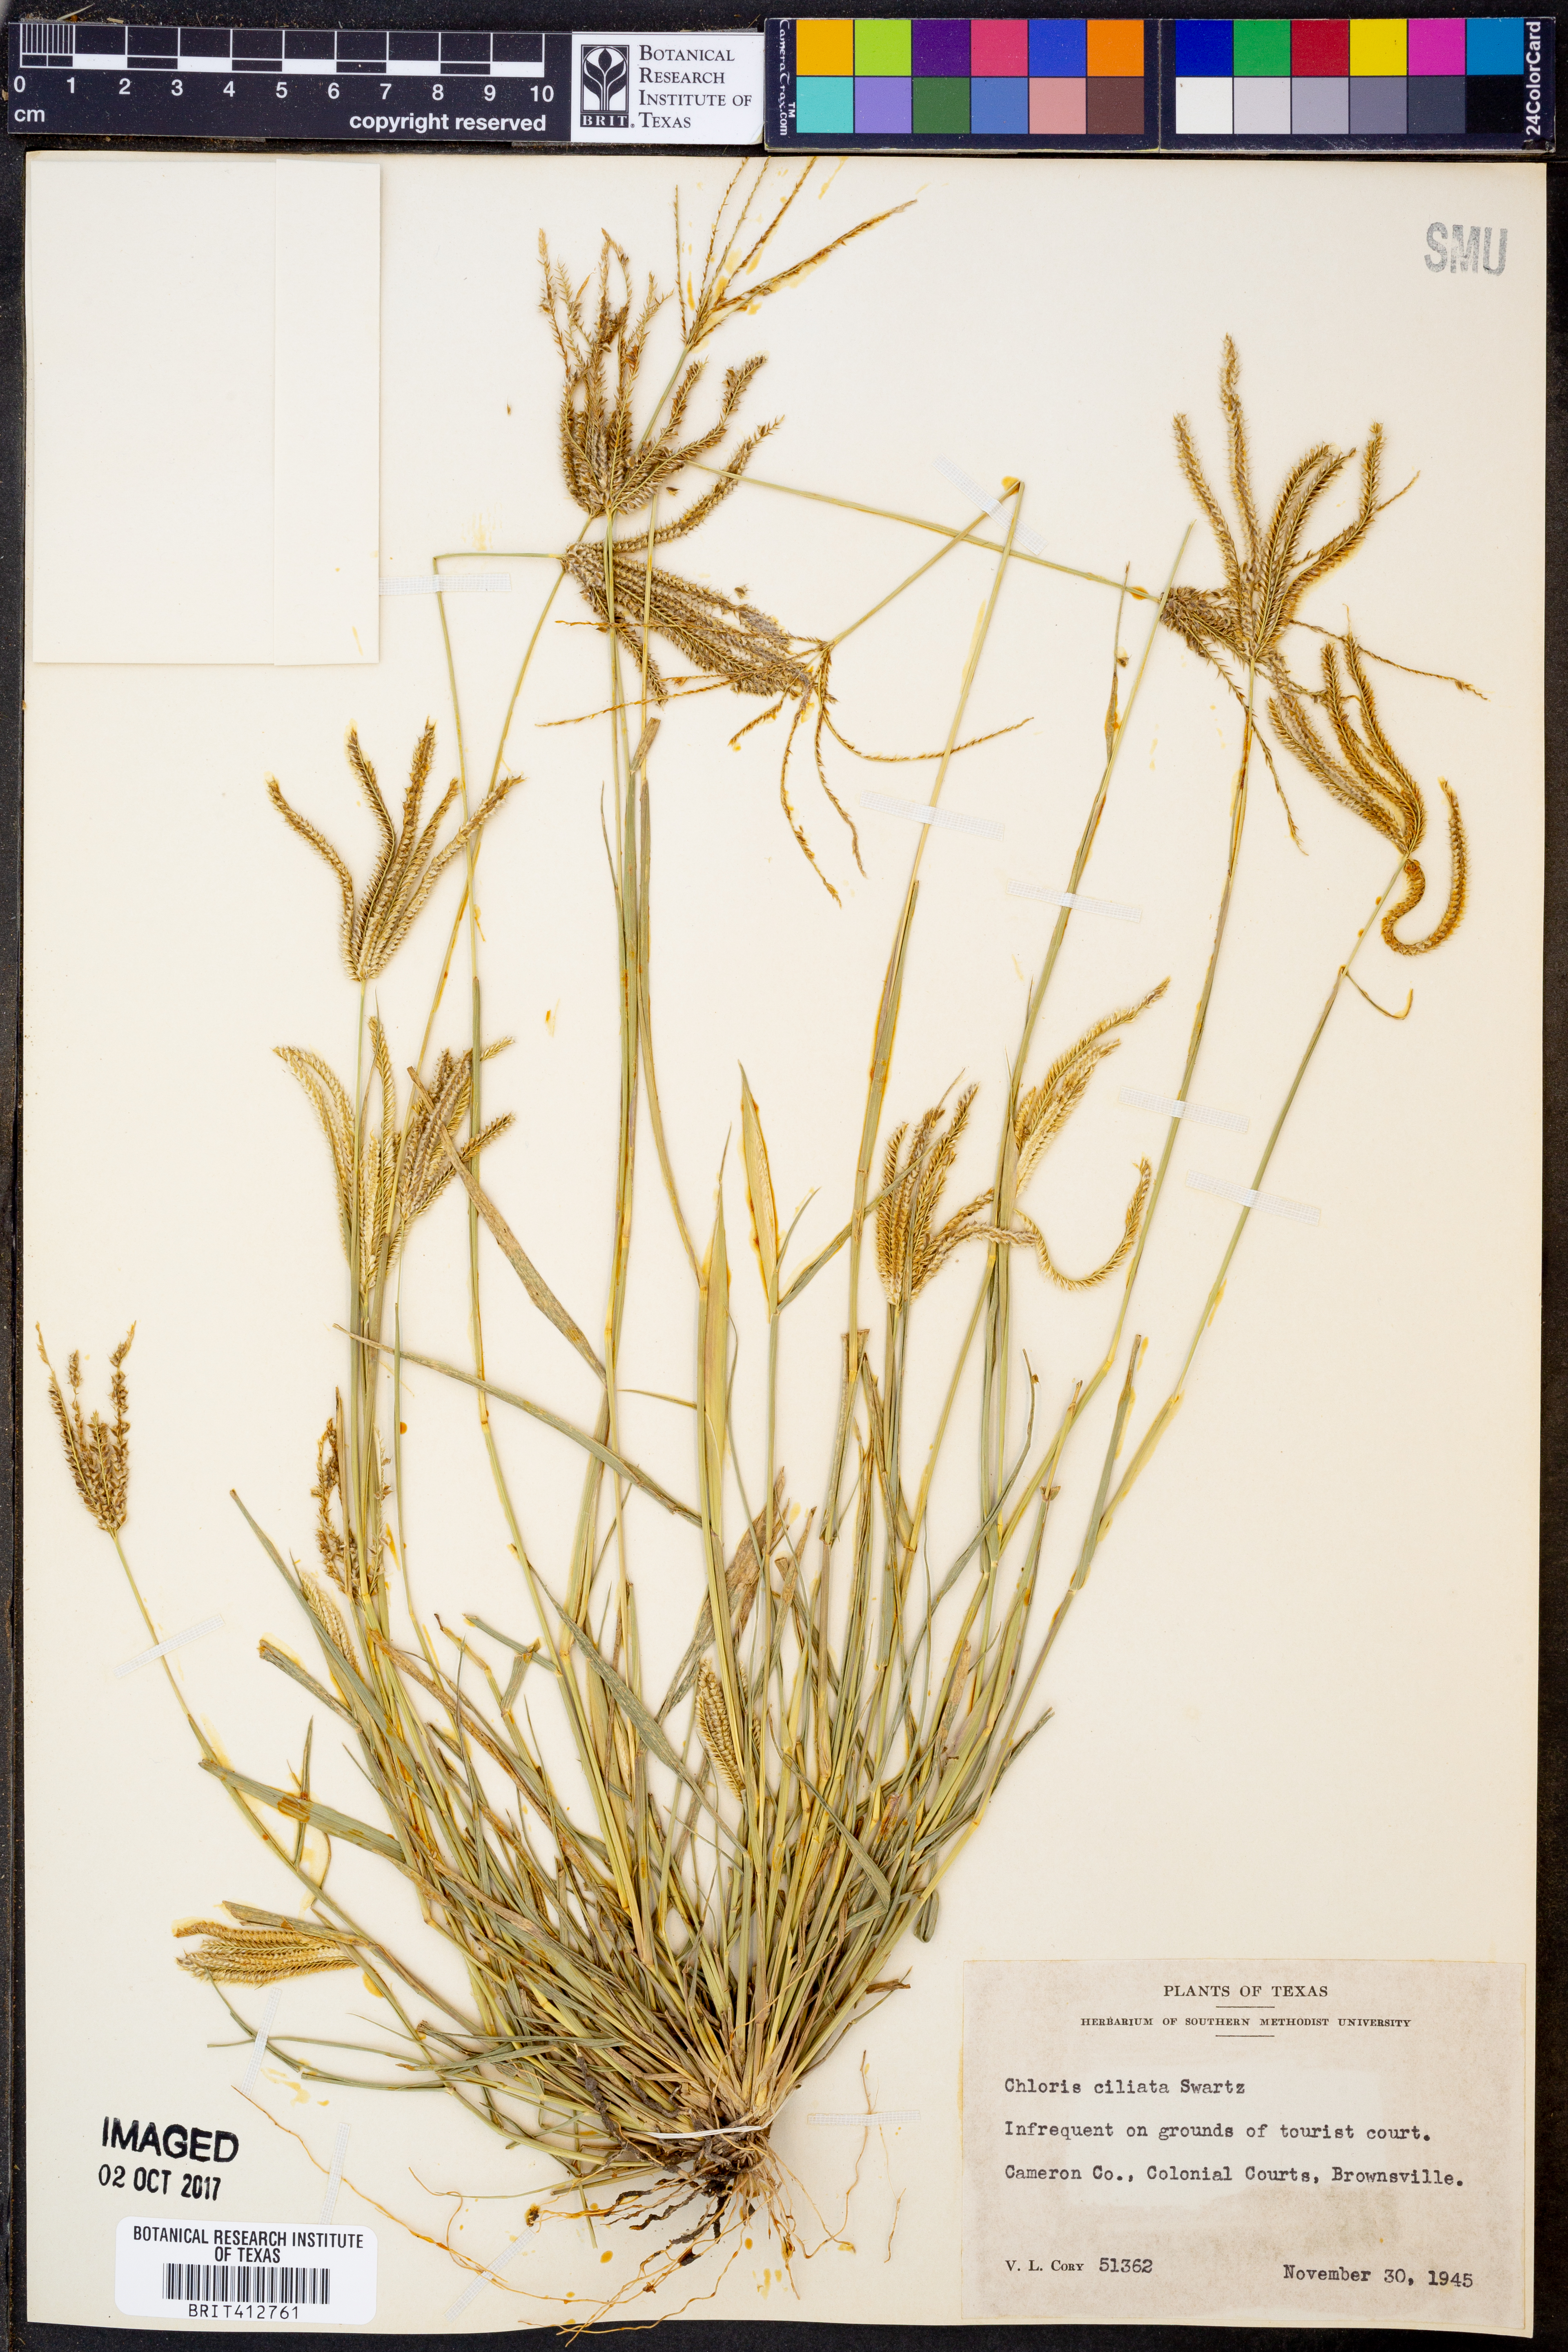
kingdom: Plantae
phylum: Tracheophyta
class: Liliopsida
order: Poales
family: Poaceae
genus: Stapfochloa
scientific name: Stapfochloa ciliata
